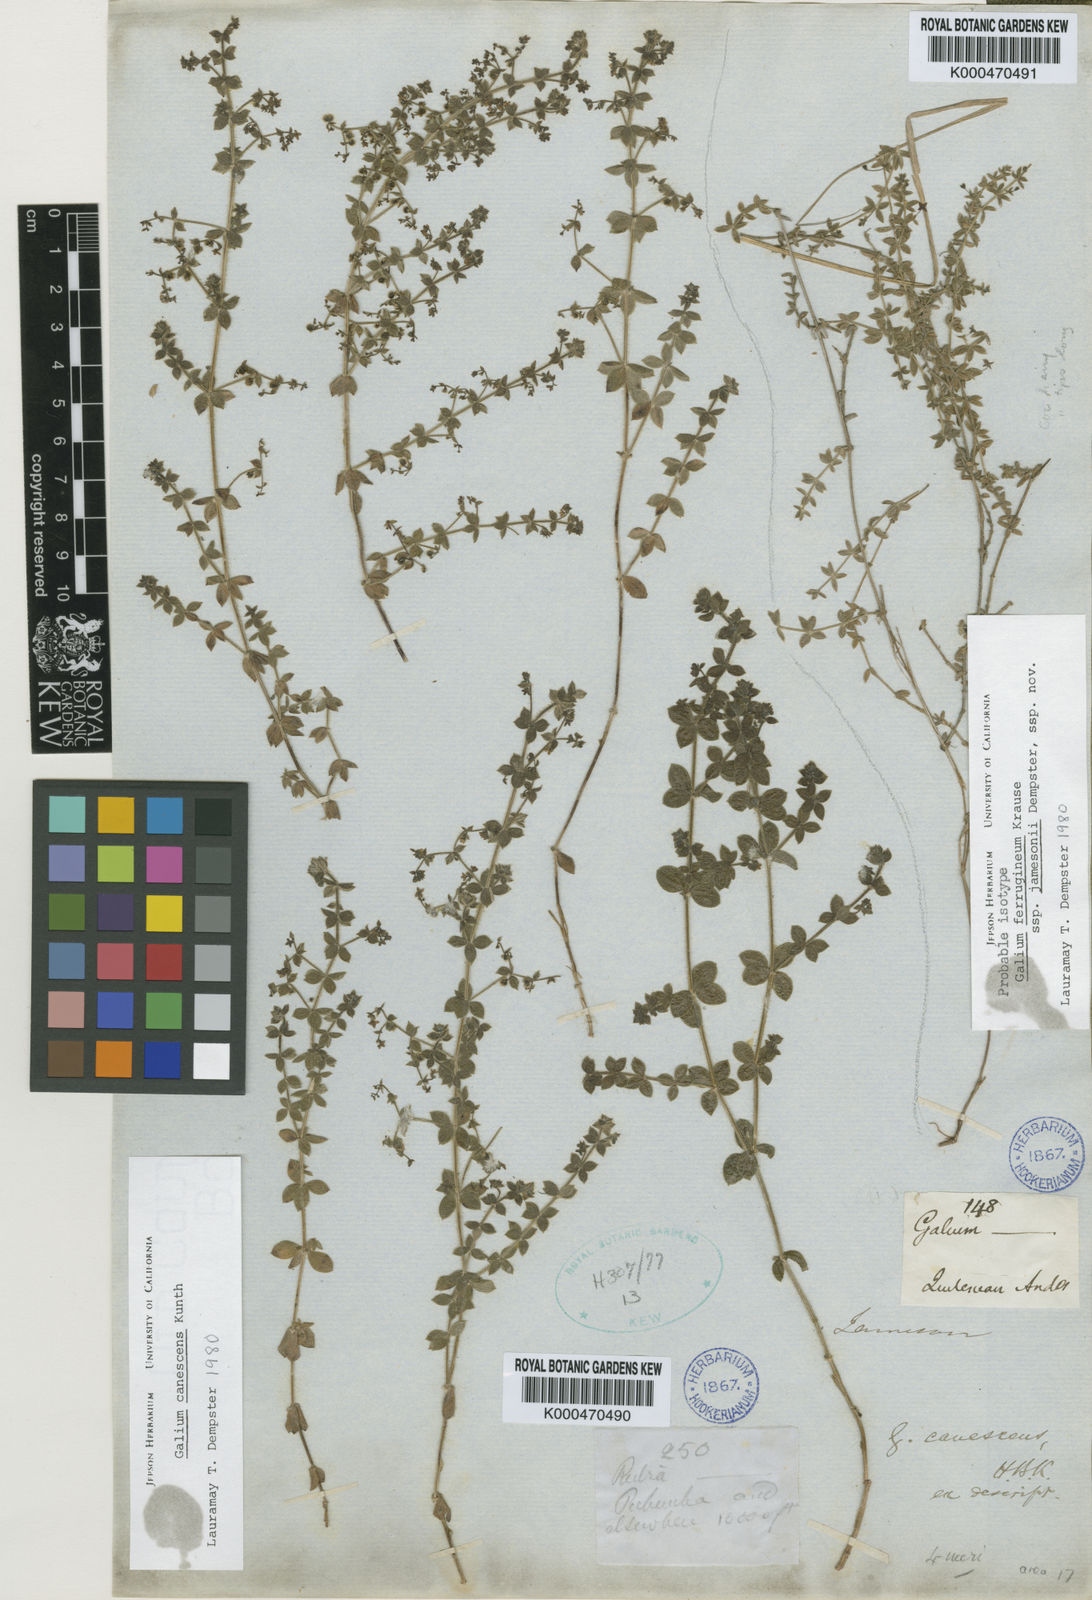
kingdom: Plantae
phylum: Tracheophyta
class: Magnoliopsida
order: Gentianales
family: Rubiaceae
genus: Galium
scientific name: Galium ferrugineum
